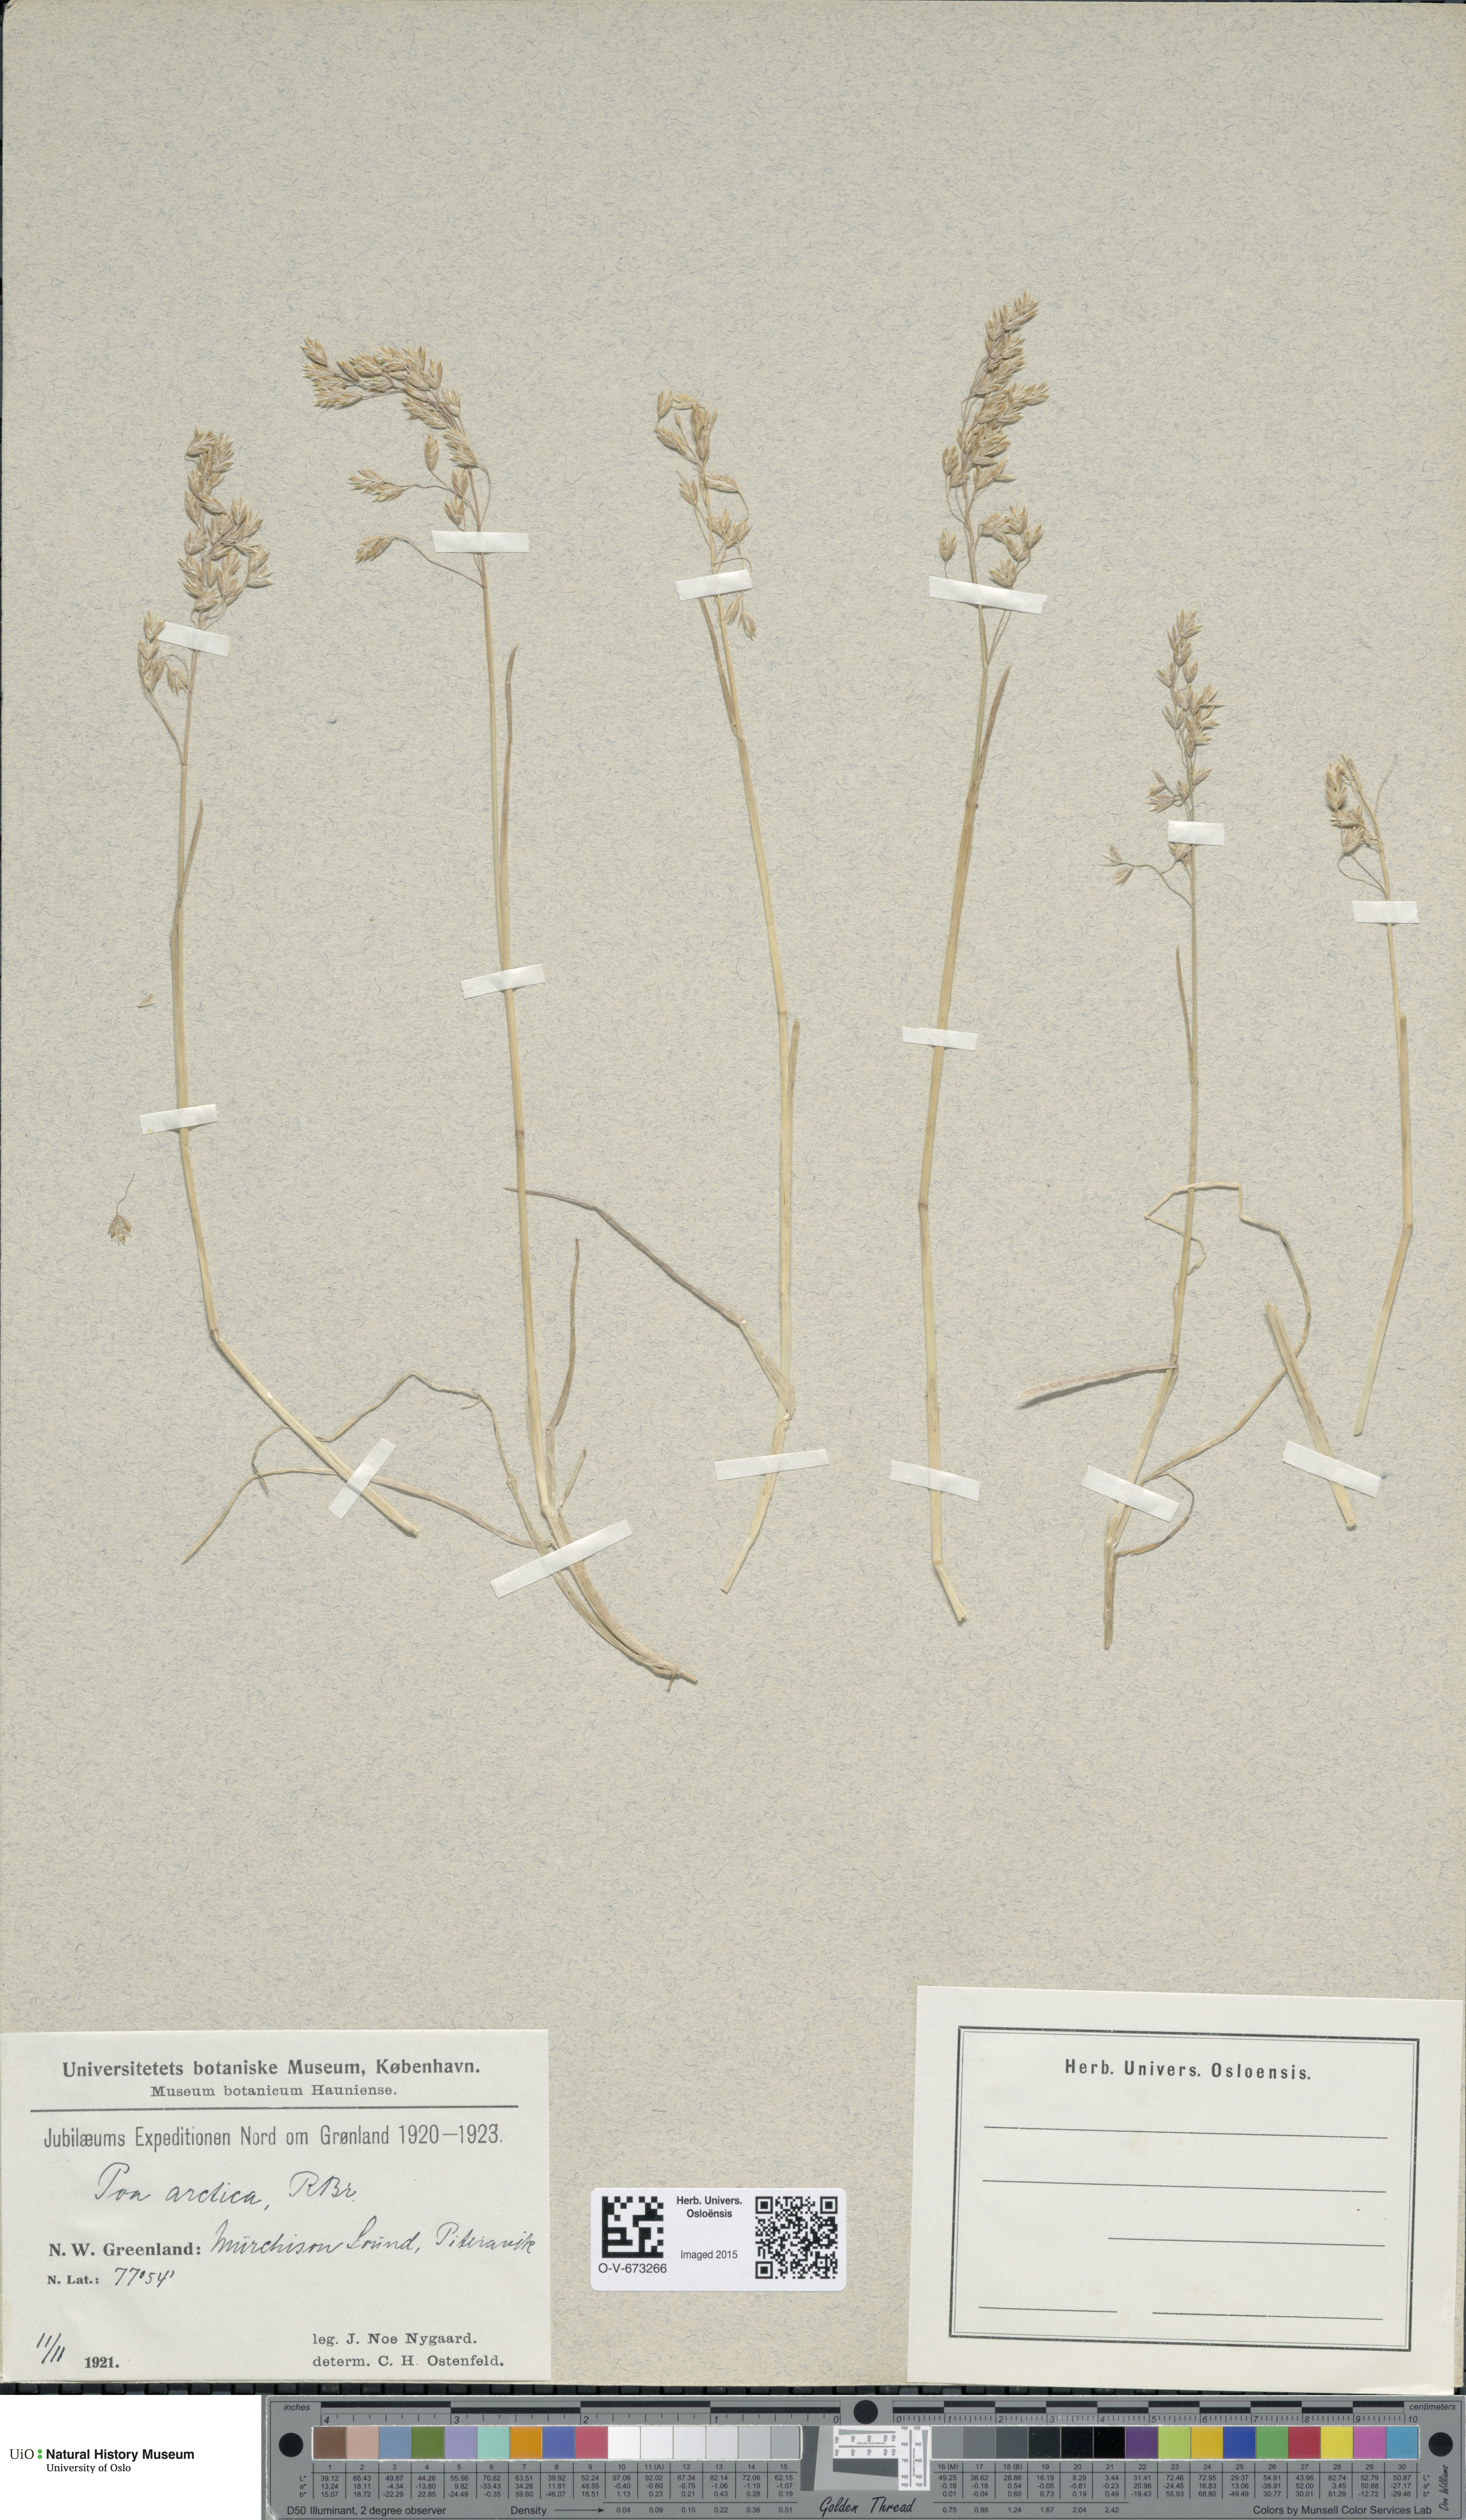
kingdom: Plantae
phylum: Tracheophyta
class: Liliopsida
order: Poales
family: Poaceae
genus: Poa
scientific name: Poa arctica
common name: Arctic bluegrass
